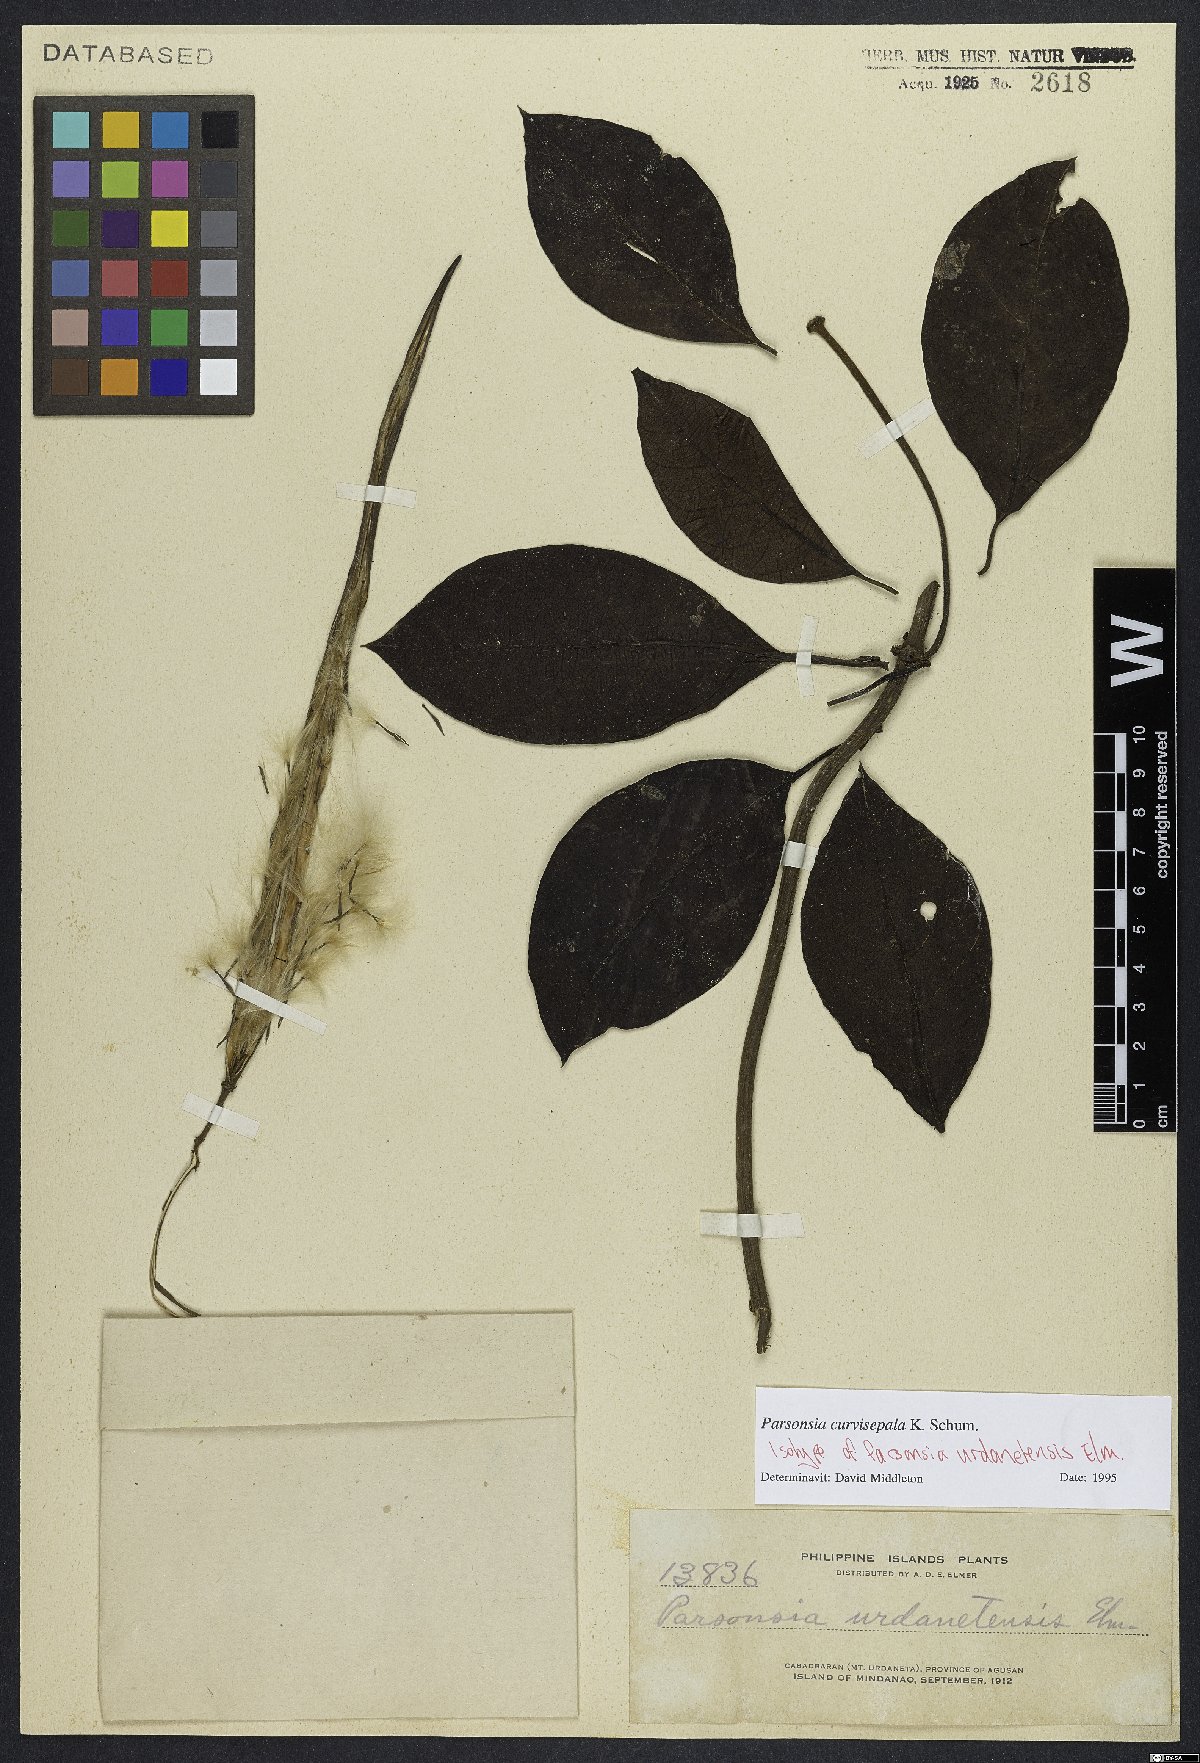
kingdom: Plantae
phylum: Tracheophyta
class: Magnoliopsida
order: Gentianales
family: Apocynaceae
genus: Parsonsia
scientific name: Parsonsia curvisepala
